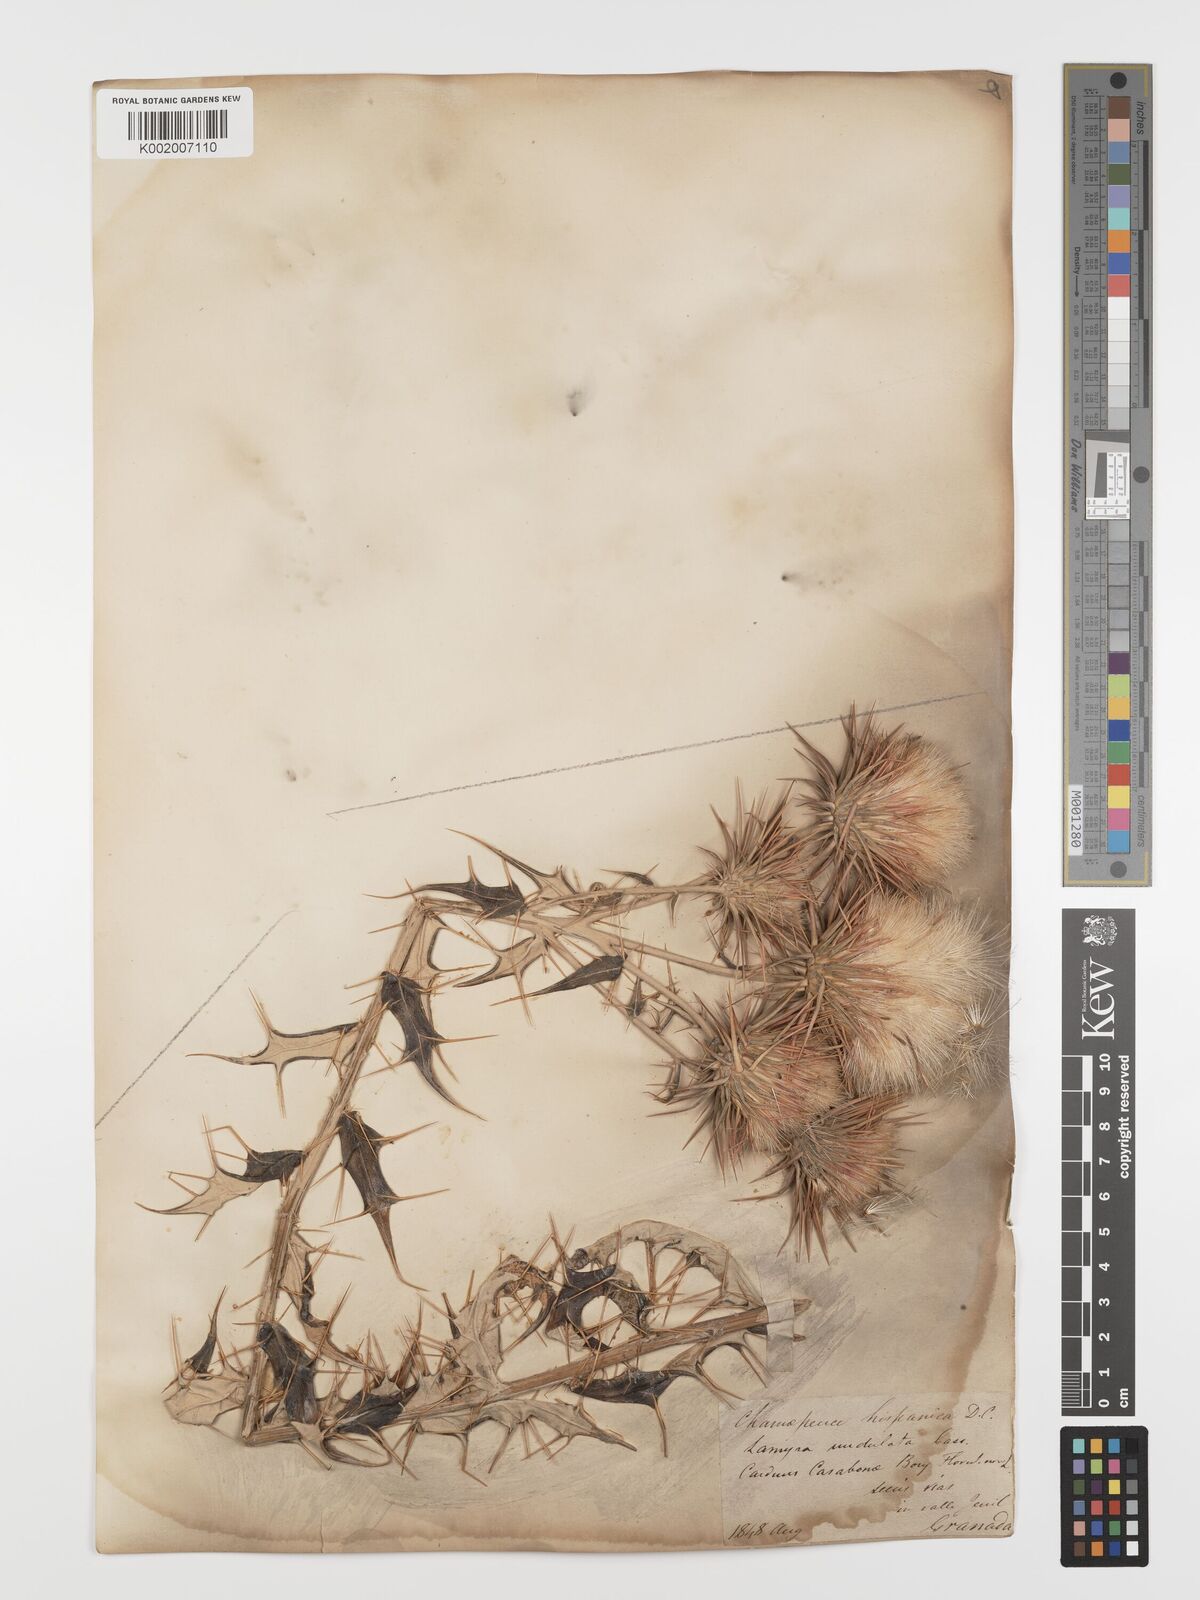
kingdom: Plantae
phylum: Tracheophyta
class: Magnoliopsida
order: Asterales
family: Asteraceae
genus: Ptilostemon
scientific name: Ptilostemon hispanicus
